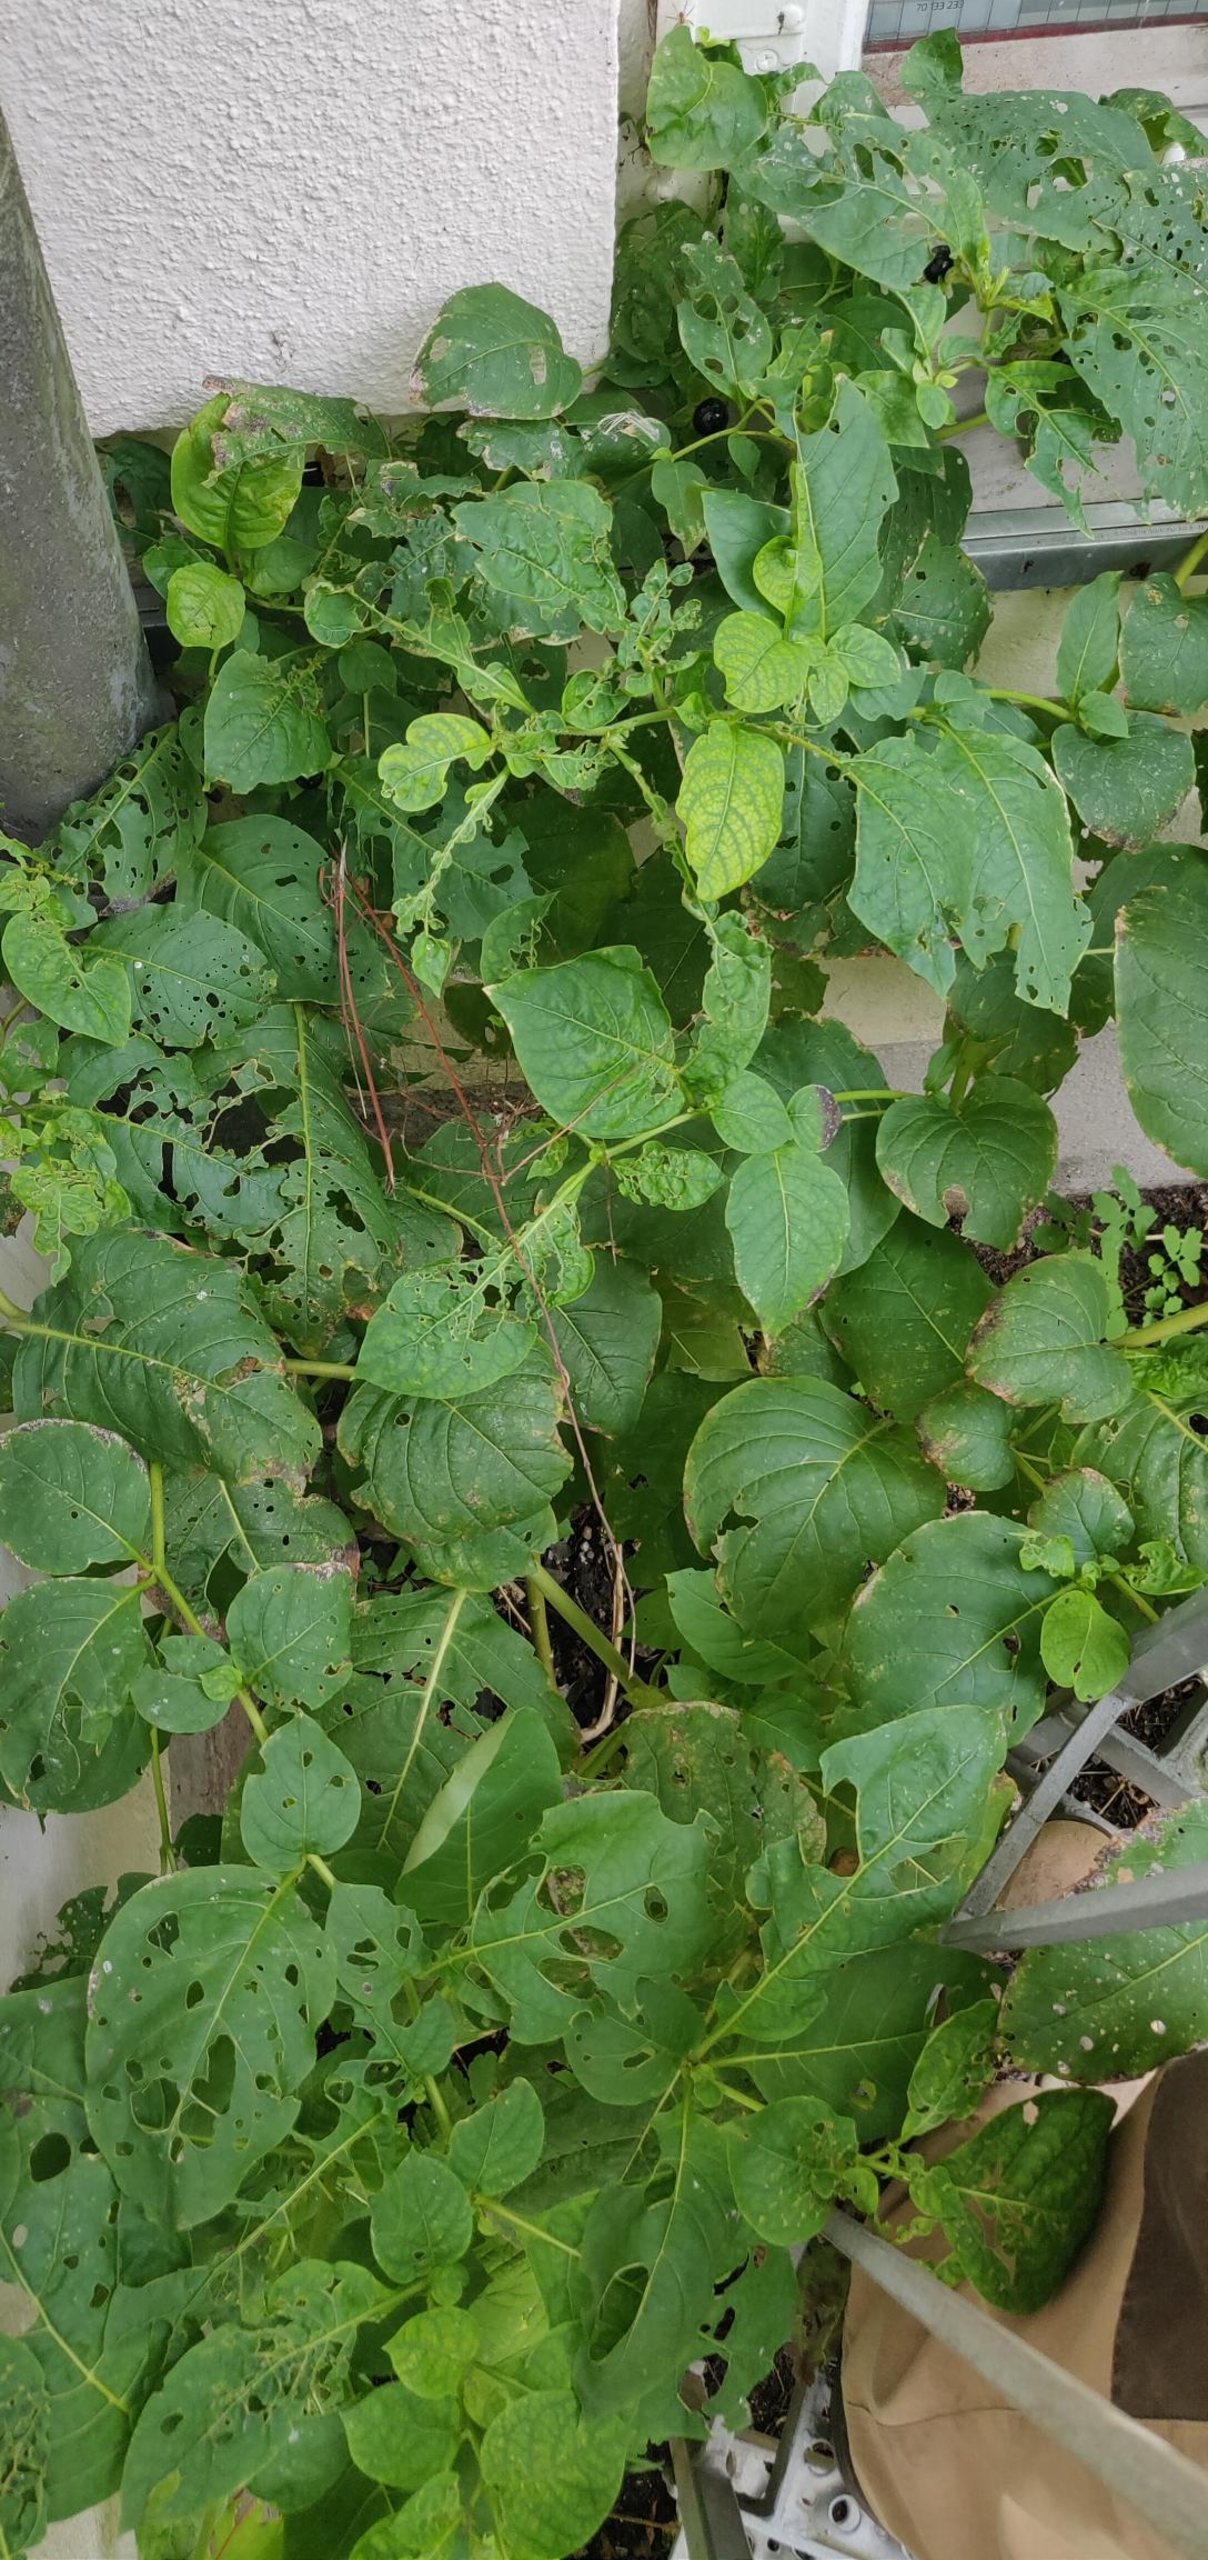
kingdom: Plantae
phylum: Tracheophyta
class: Magnoliopsida
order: Solanales
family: Solanaceae
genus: Atropa
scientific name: Atropa belladonna
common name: Galnebær
